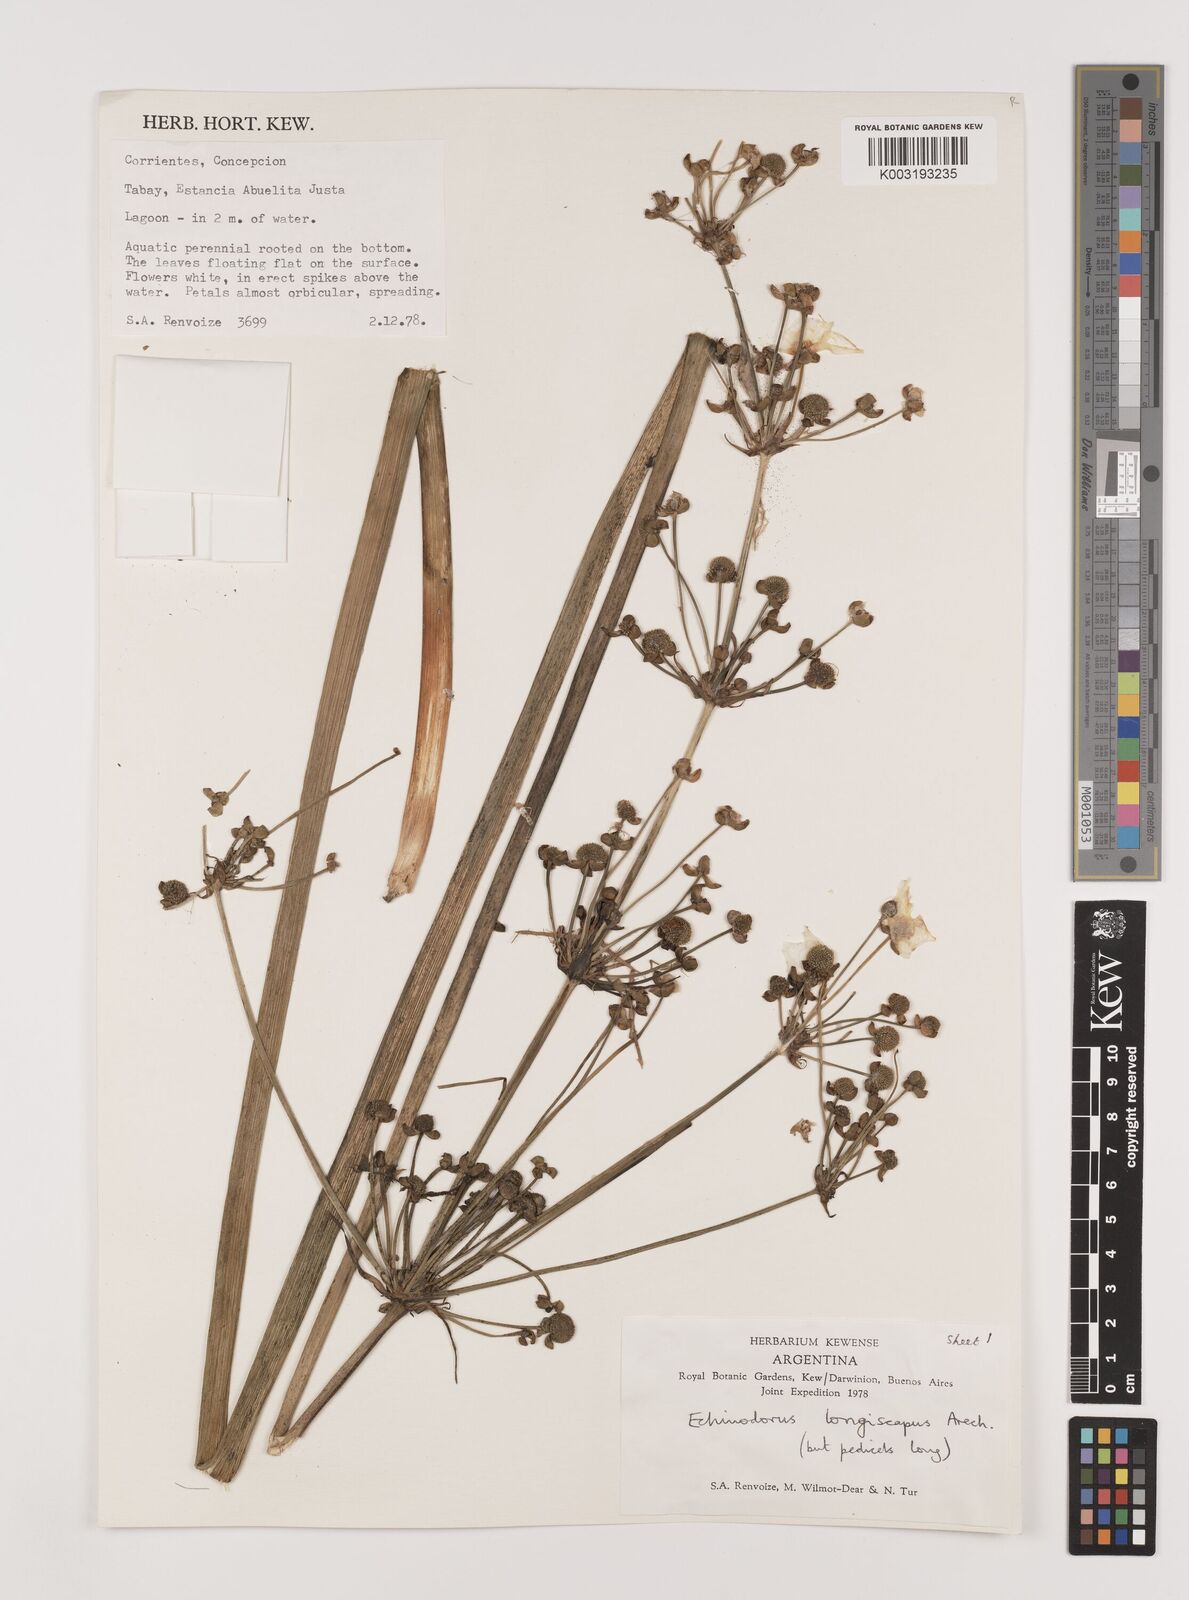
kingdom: Plantae
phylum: Tracheophyta
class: Liliopsida
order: Alismatales
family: Alismataceae
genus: Aquarius
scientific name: Aquarius longiscapus
